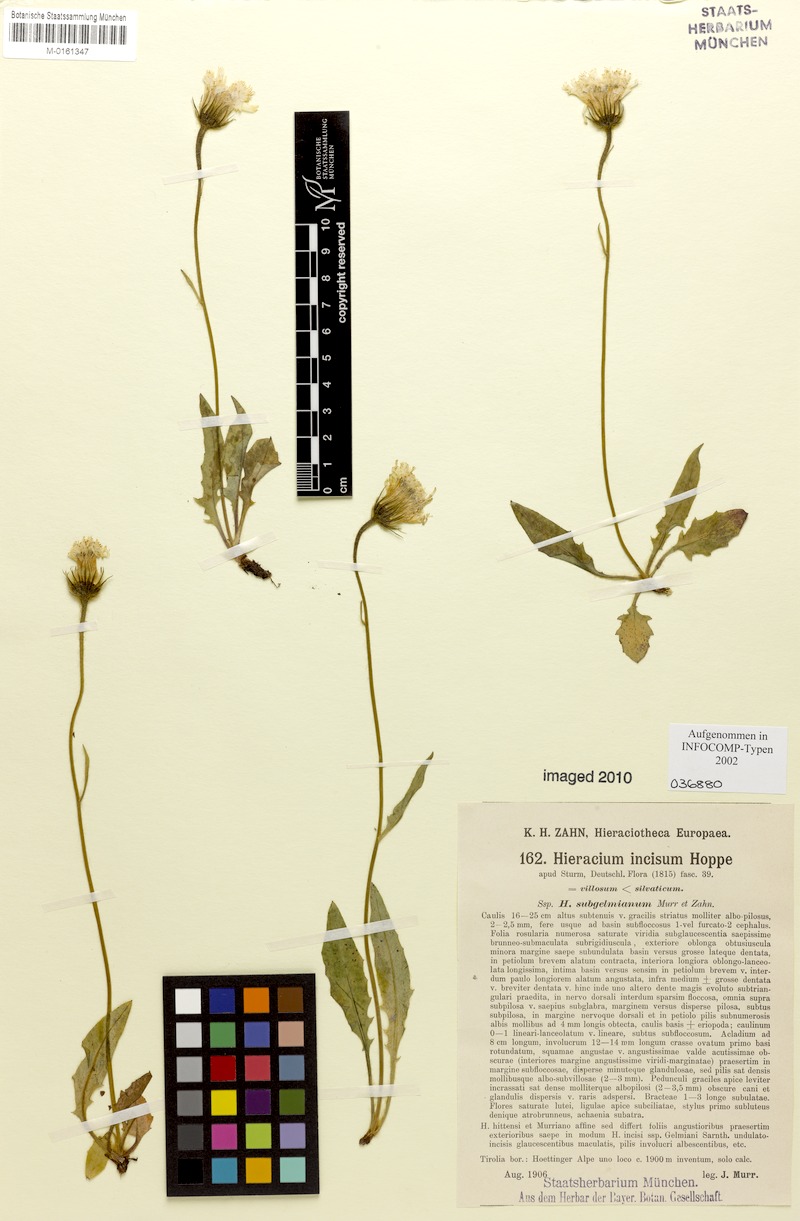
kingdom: Plantae
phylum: Tracheophyta
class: Magnoliopsida
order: Asterales
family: Asteraceae
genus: Hieracium
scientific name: Hieracium pallescens
